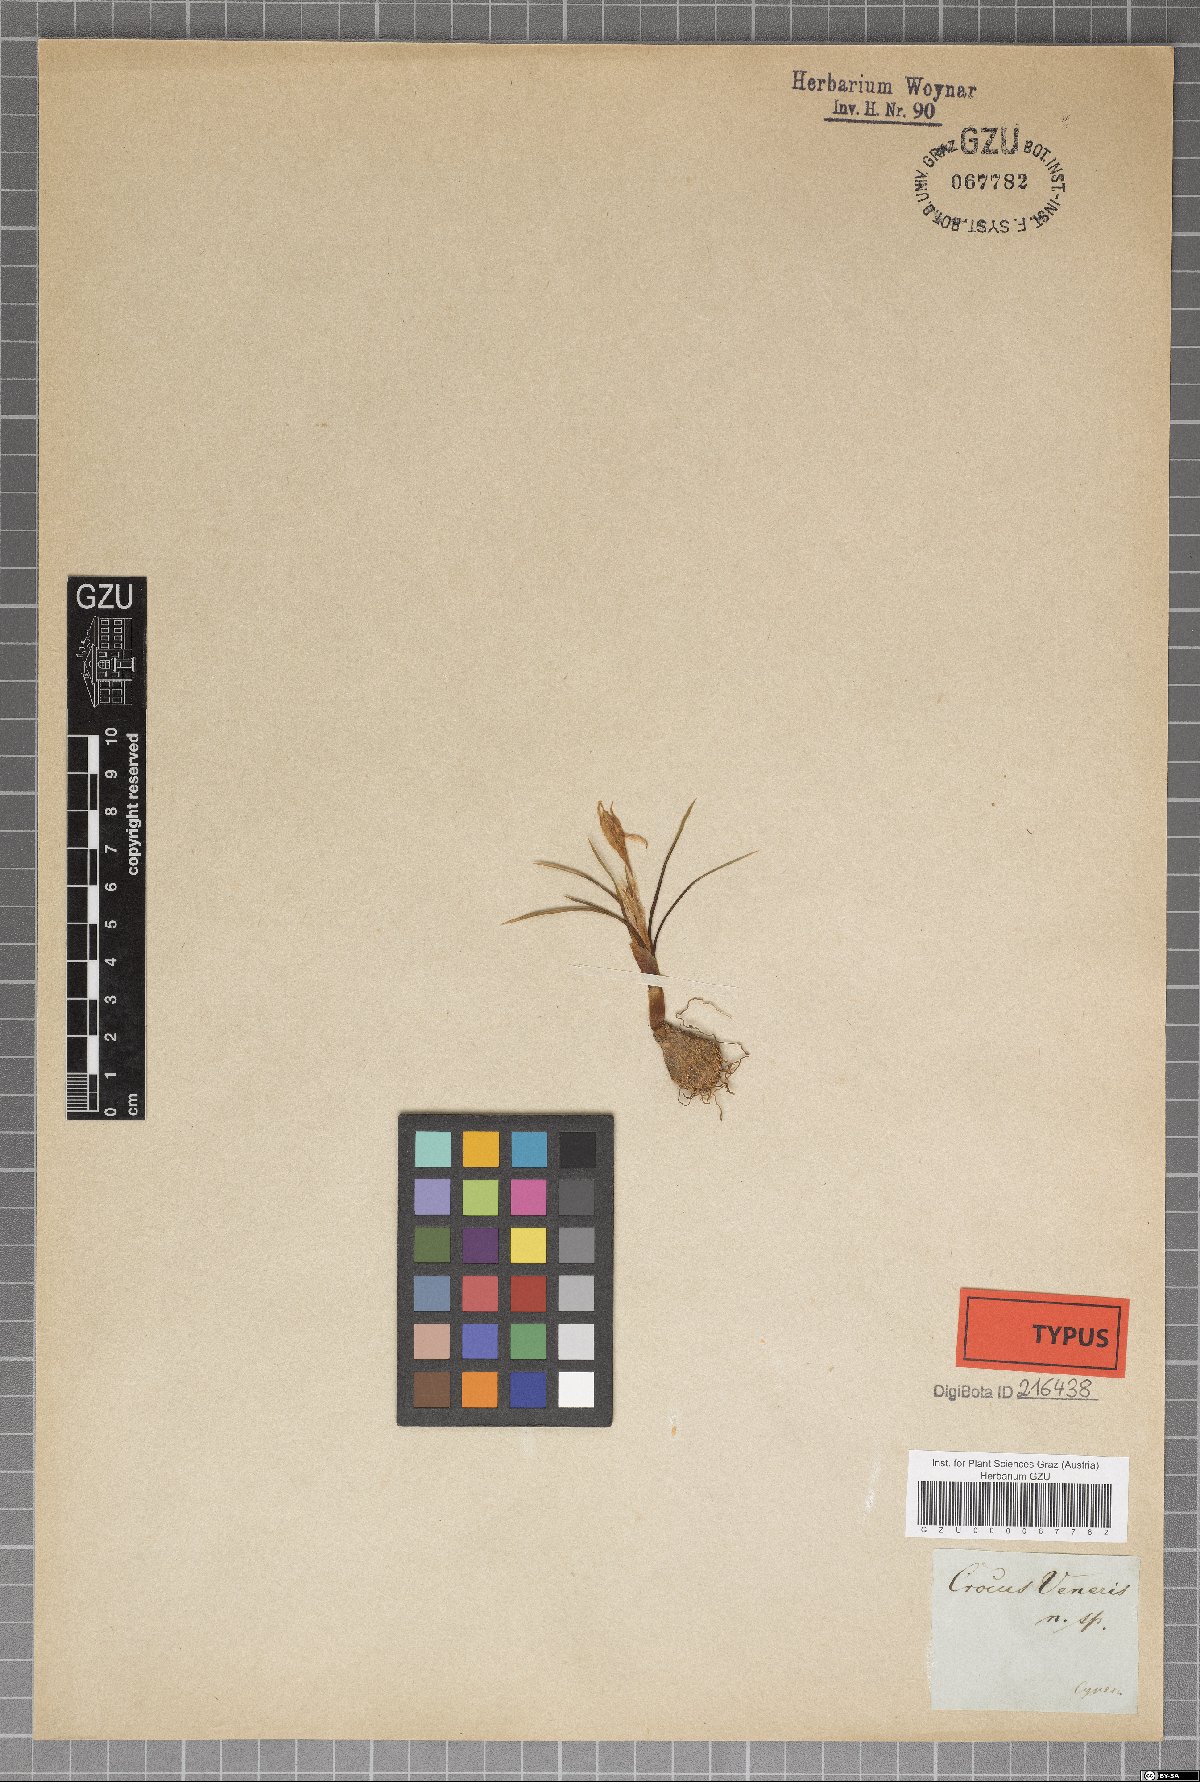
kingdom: Plantae
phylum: Tracheophyta
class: Liliopsida
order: Asparagales
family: Iridaceae
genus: Crocus
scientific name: Crocus veneris
